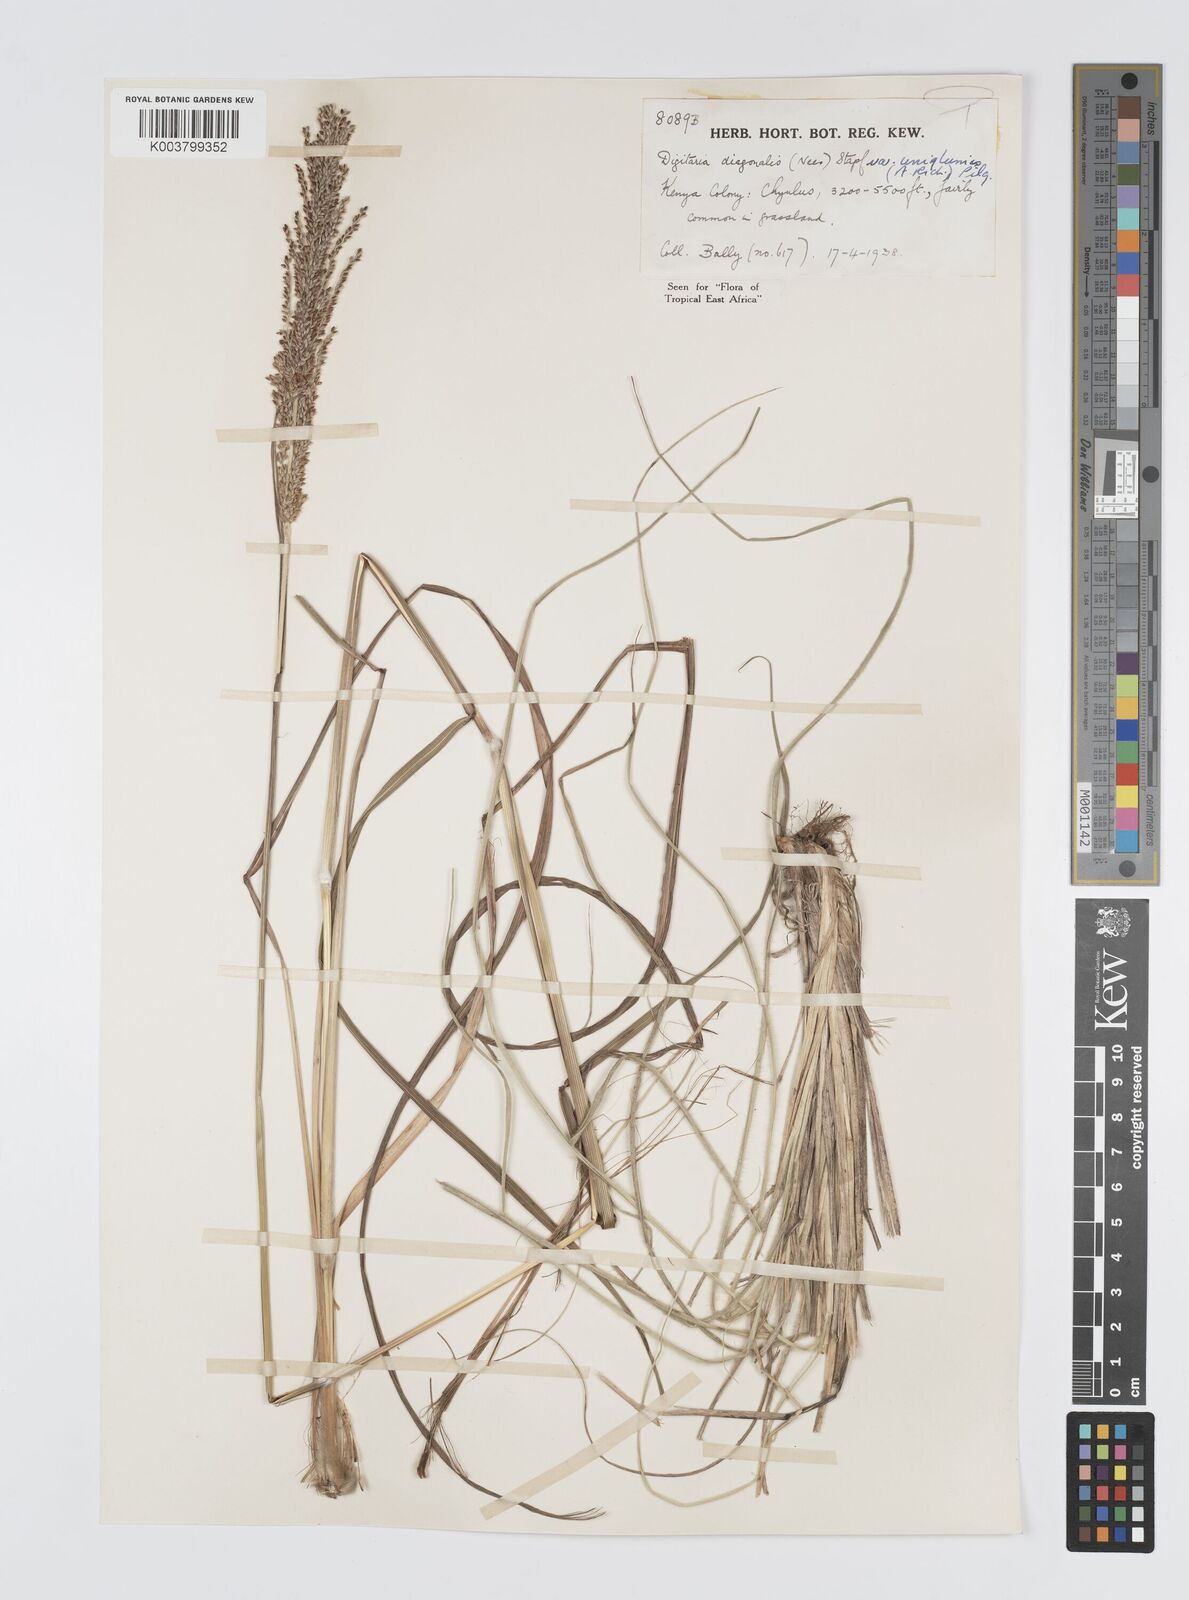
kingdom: Plantae
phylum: Tracheophyta
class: Liliopsida
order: Poales
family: Poaceae
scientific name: Poaceae
